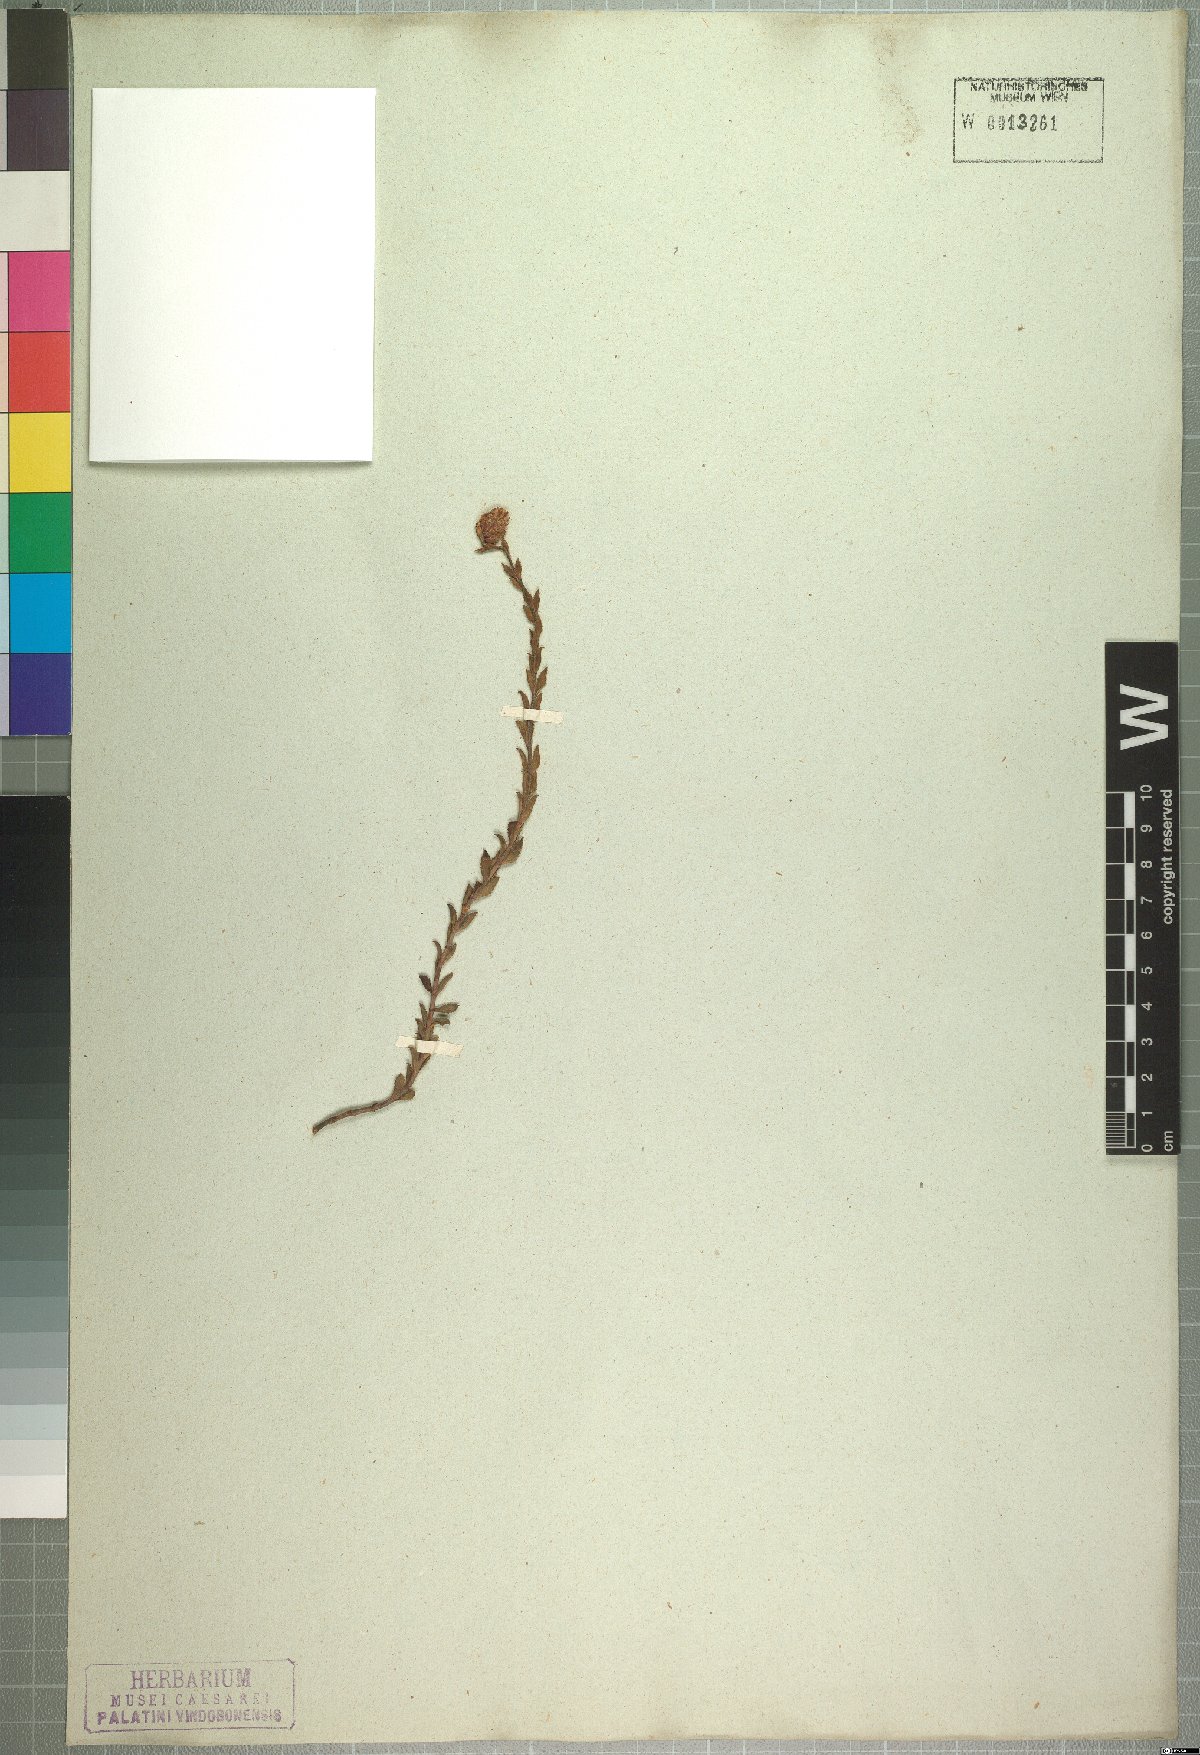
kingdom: Plantae
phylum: Tracheophyta
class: Magnoliopsida
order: Lamiales
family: Scrophulariaceae
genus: Glumicalyx
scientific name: Glumicalyx apiculatus
